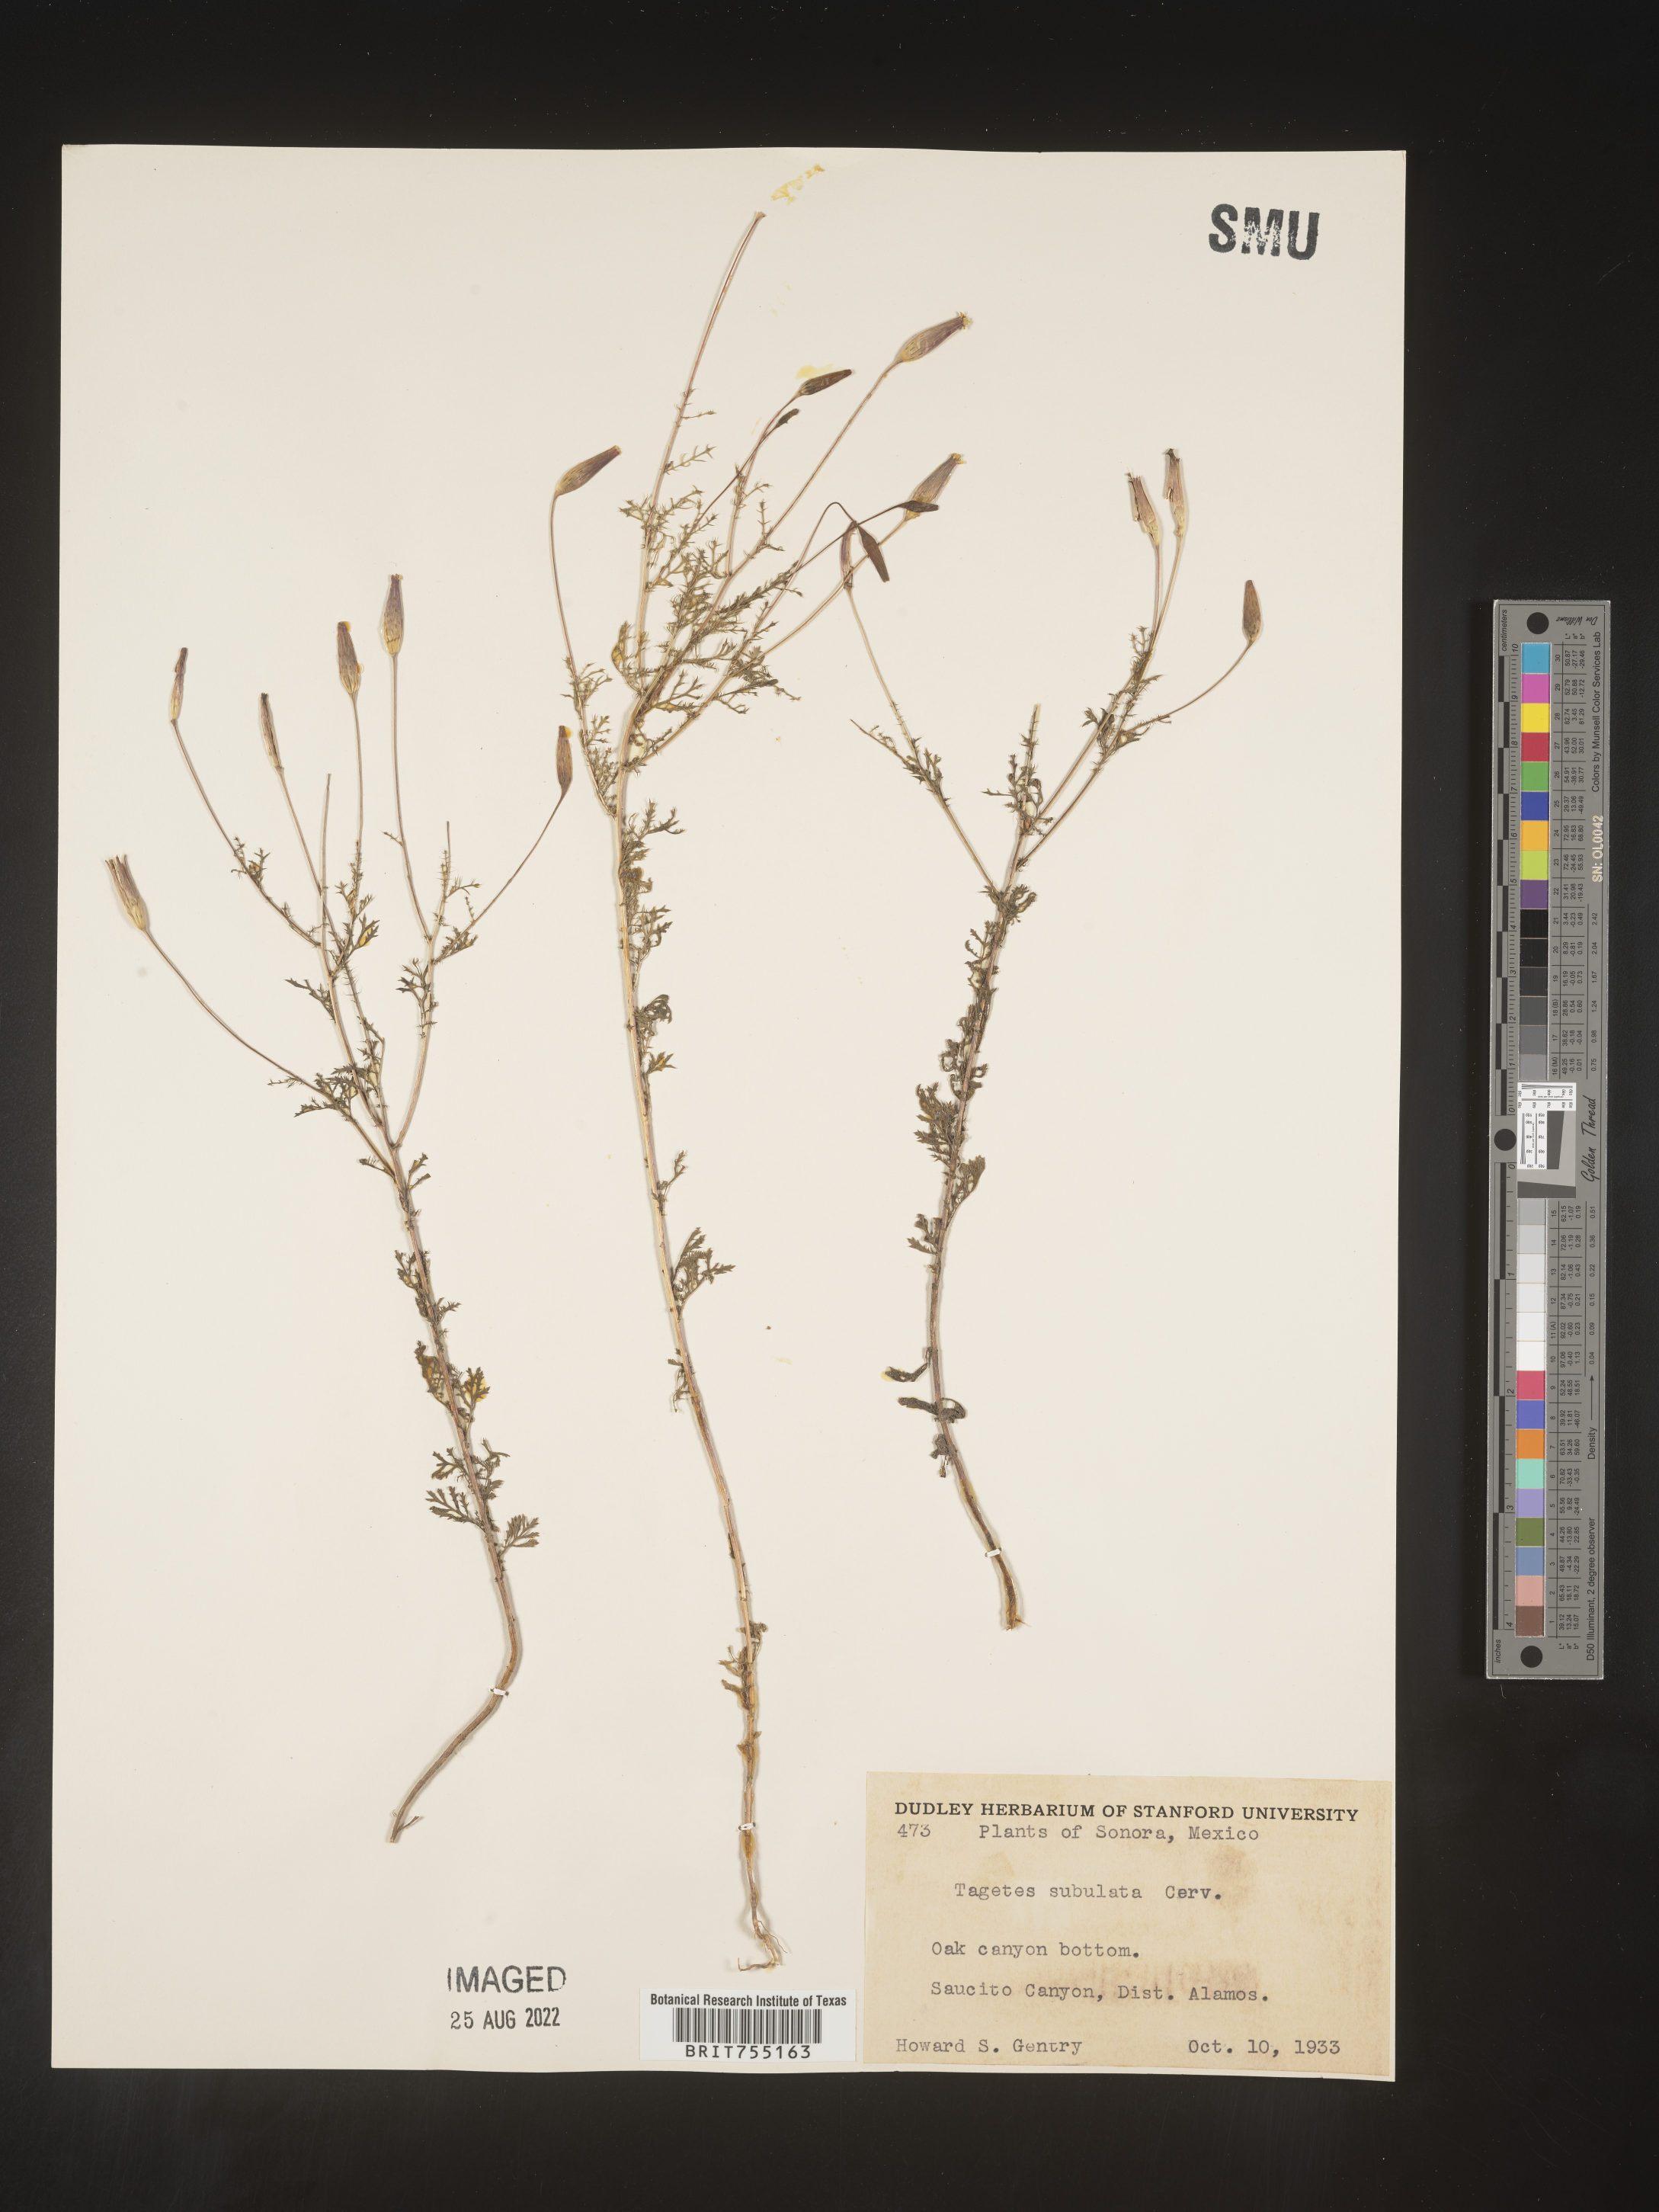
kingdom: Plantae
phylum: Tracheophyta
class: Magnoliopsida
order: Asterales
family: Asteraceae
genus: Tagetes
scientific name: Tagetes
